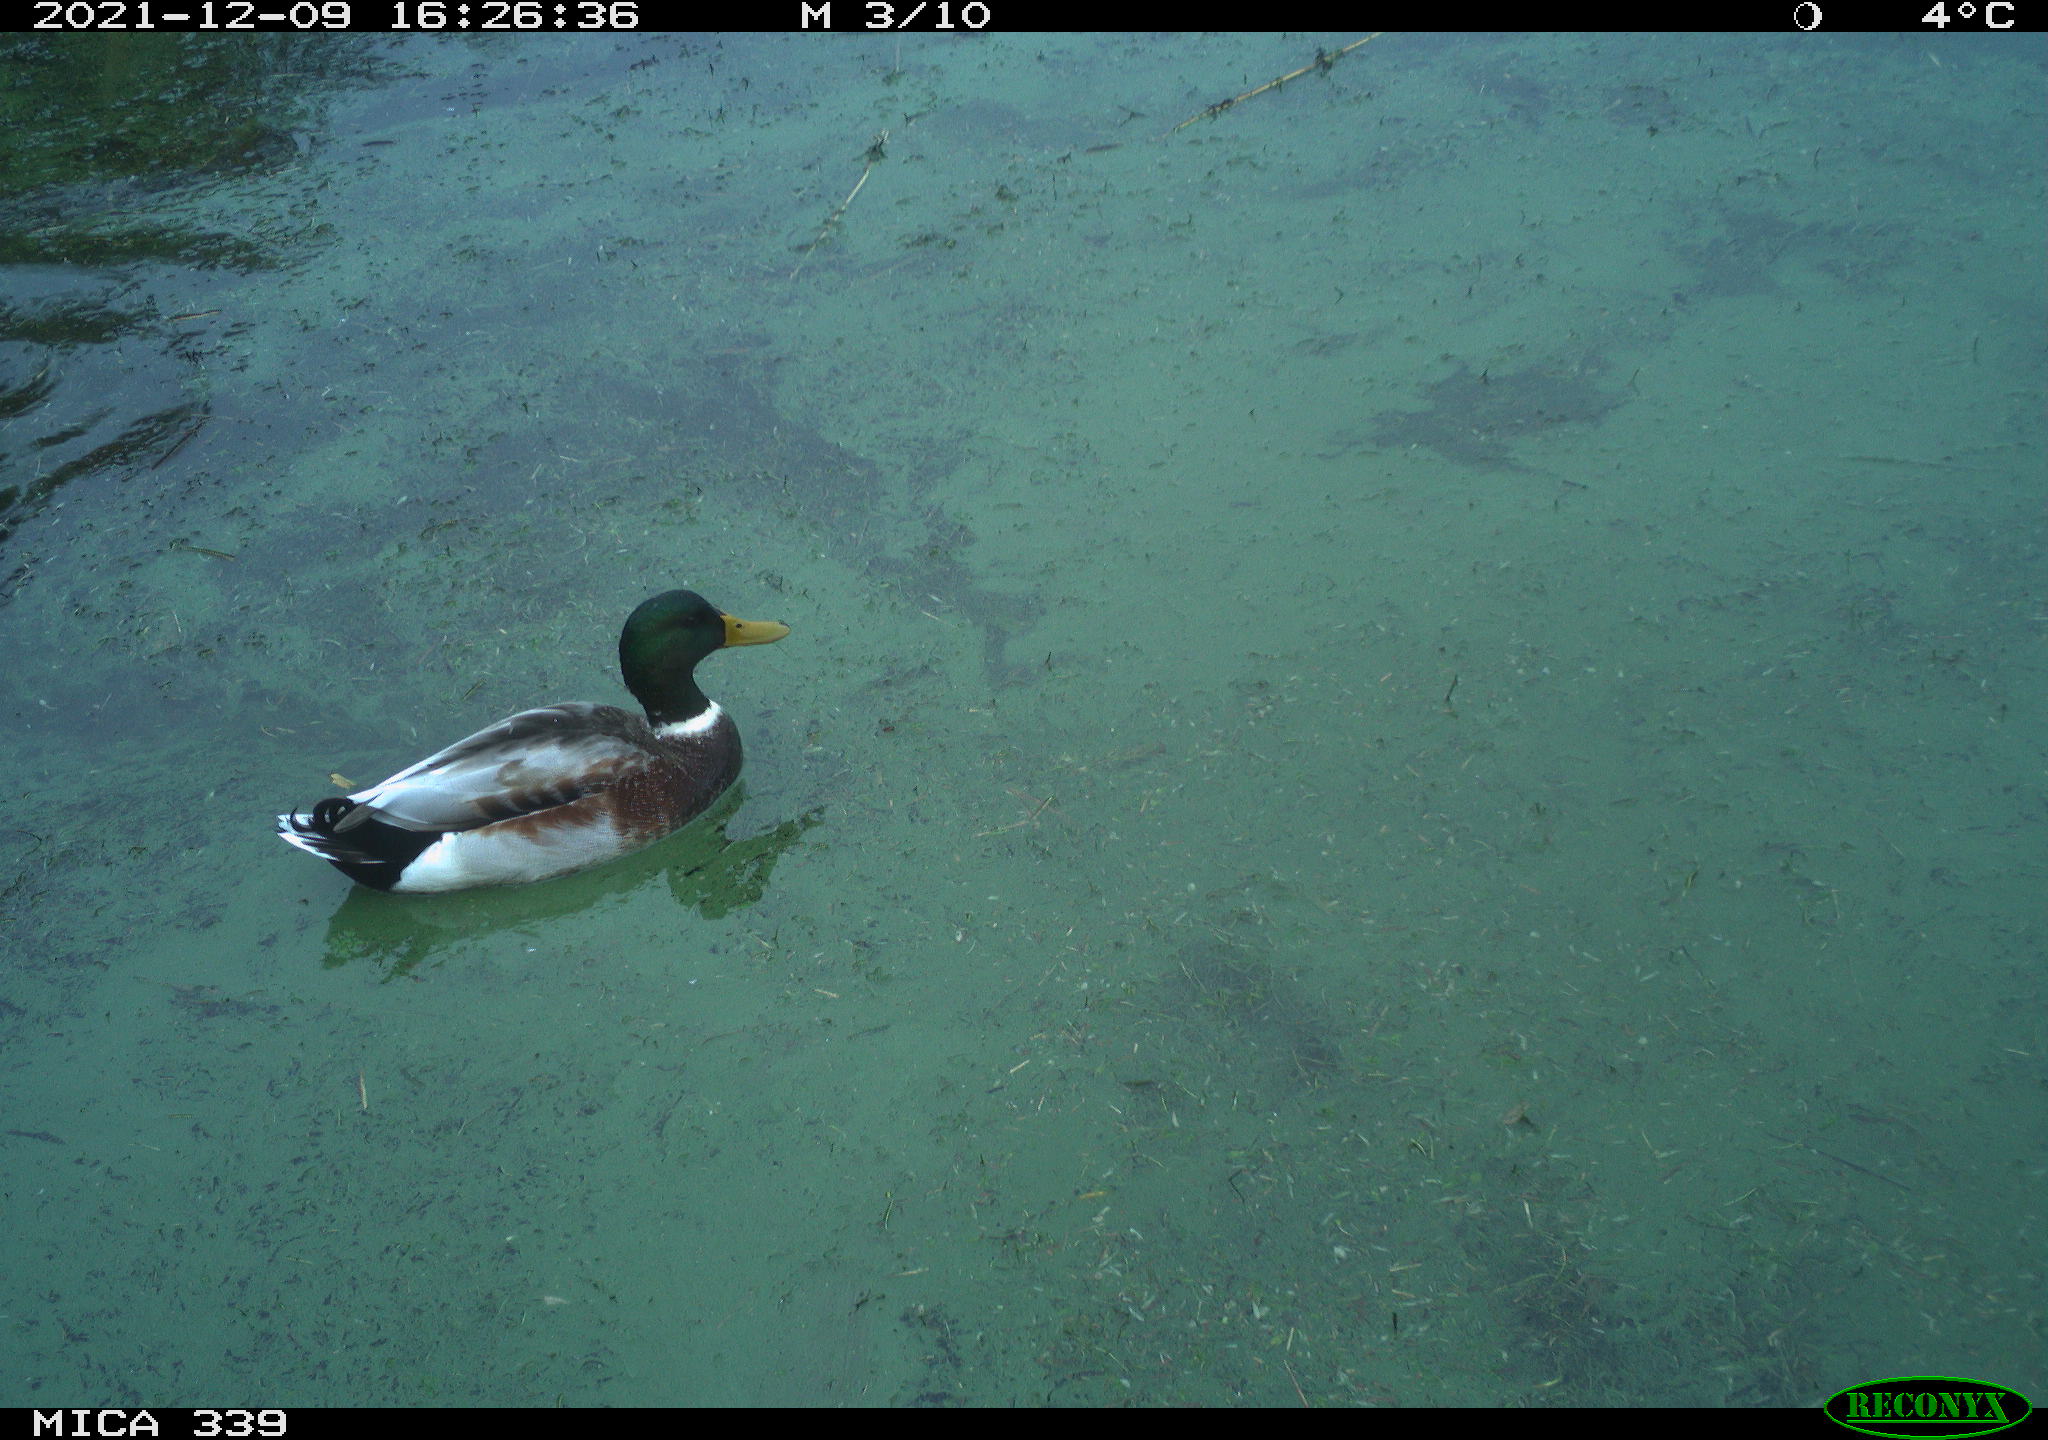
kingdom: Animalia
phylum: Chordata
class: Aves
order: Anseriformes
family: Anatidae
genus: Anas
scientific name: Anas platyrhynchos
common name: Mallard
